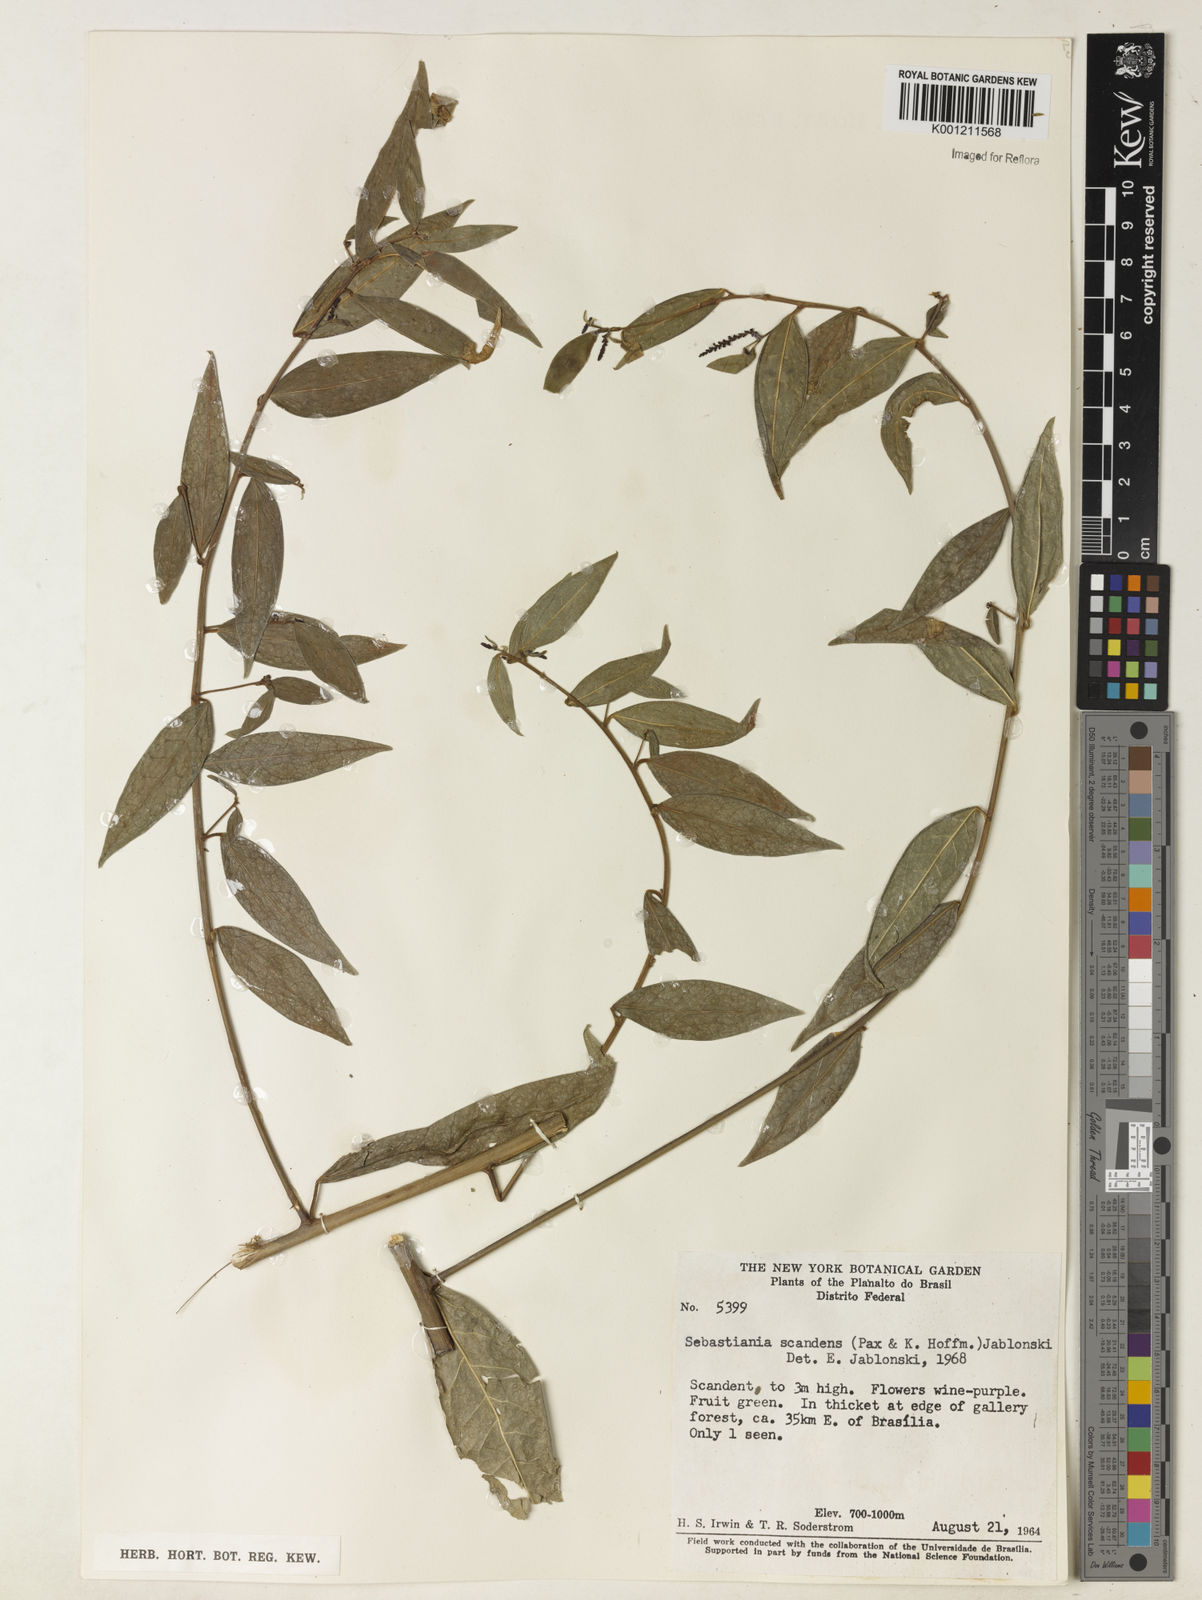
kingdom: Plantae
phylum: Tracheophyta
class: Magnoliopsida
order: Malpighiales
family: Euphorbiaceae
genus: Microstachys
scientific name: Microstachys hispida
